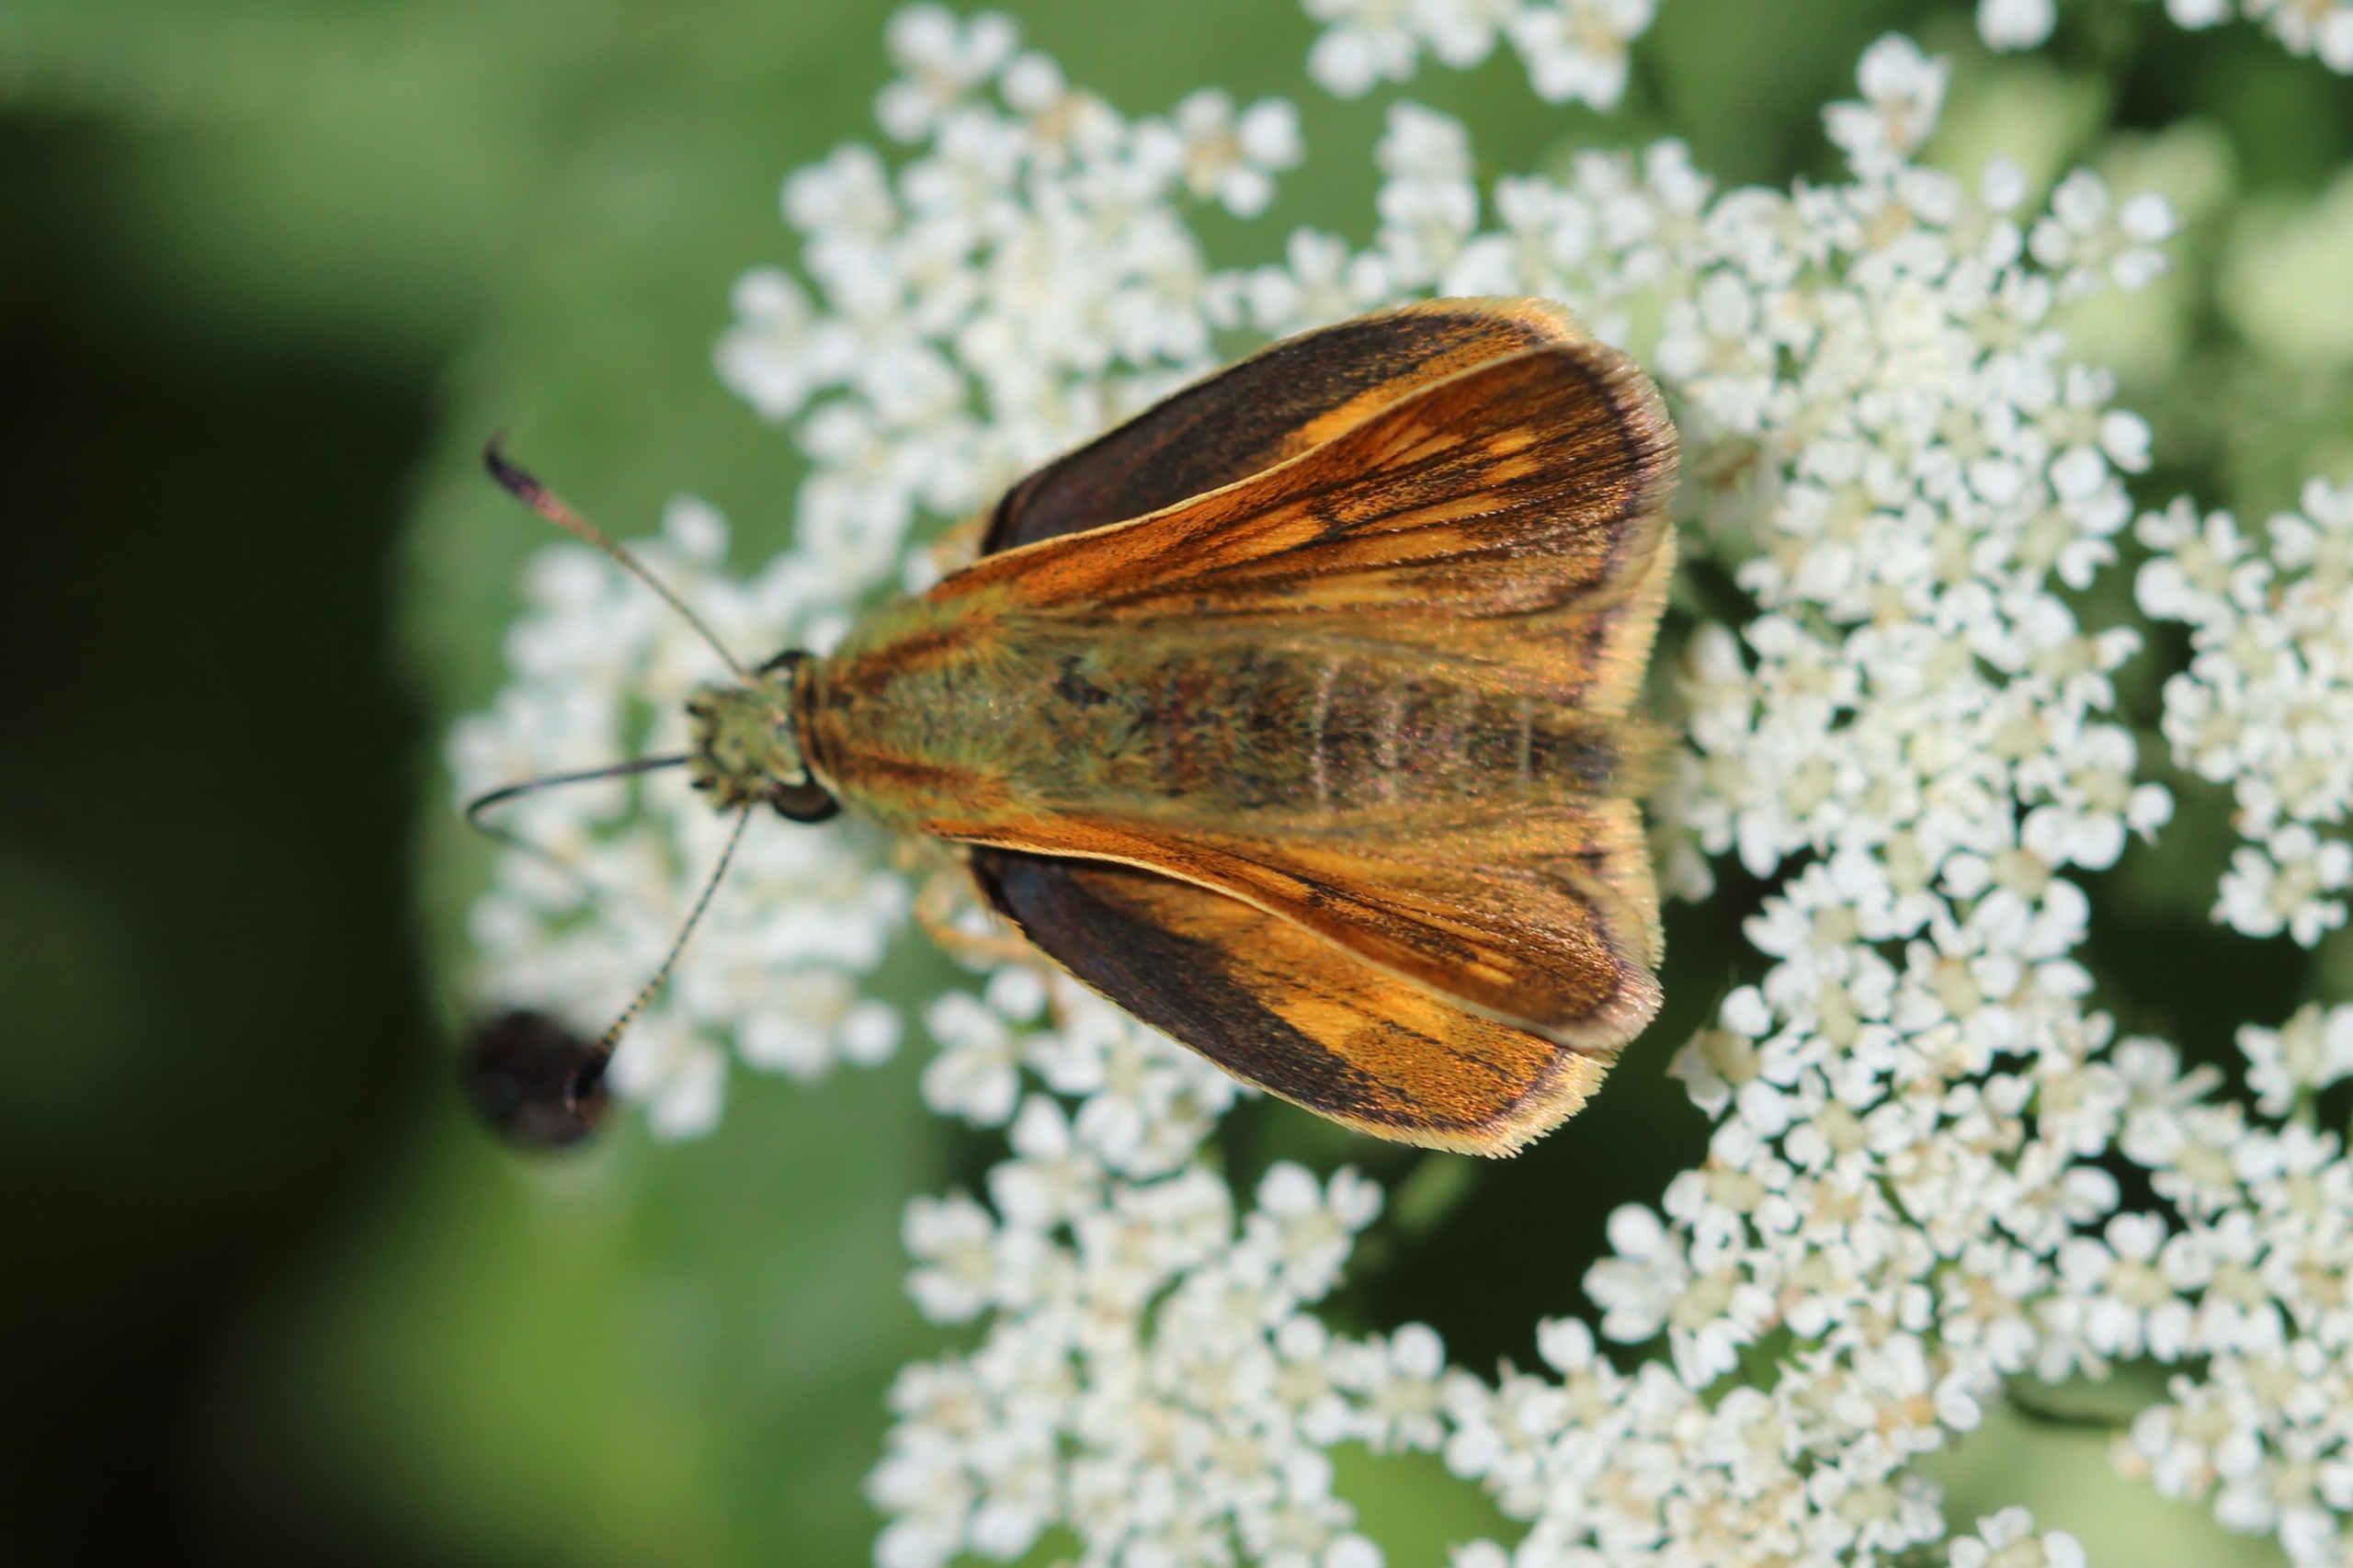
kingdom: Animalia
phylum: Arthropoda
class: Insecta
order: Lepidoptera
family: Hesperiidae
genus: Ochlodes
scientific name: Ochlodes venata
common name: Stor bredpande
